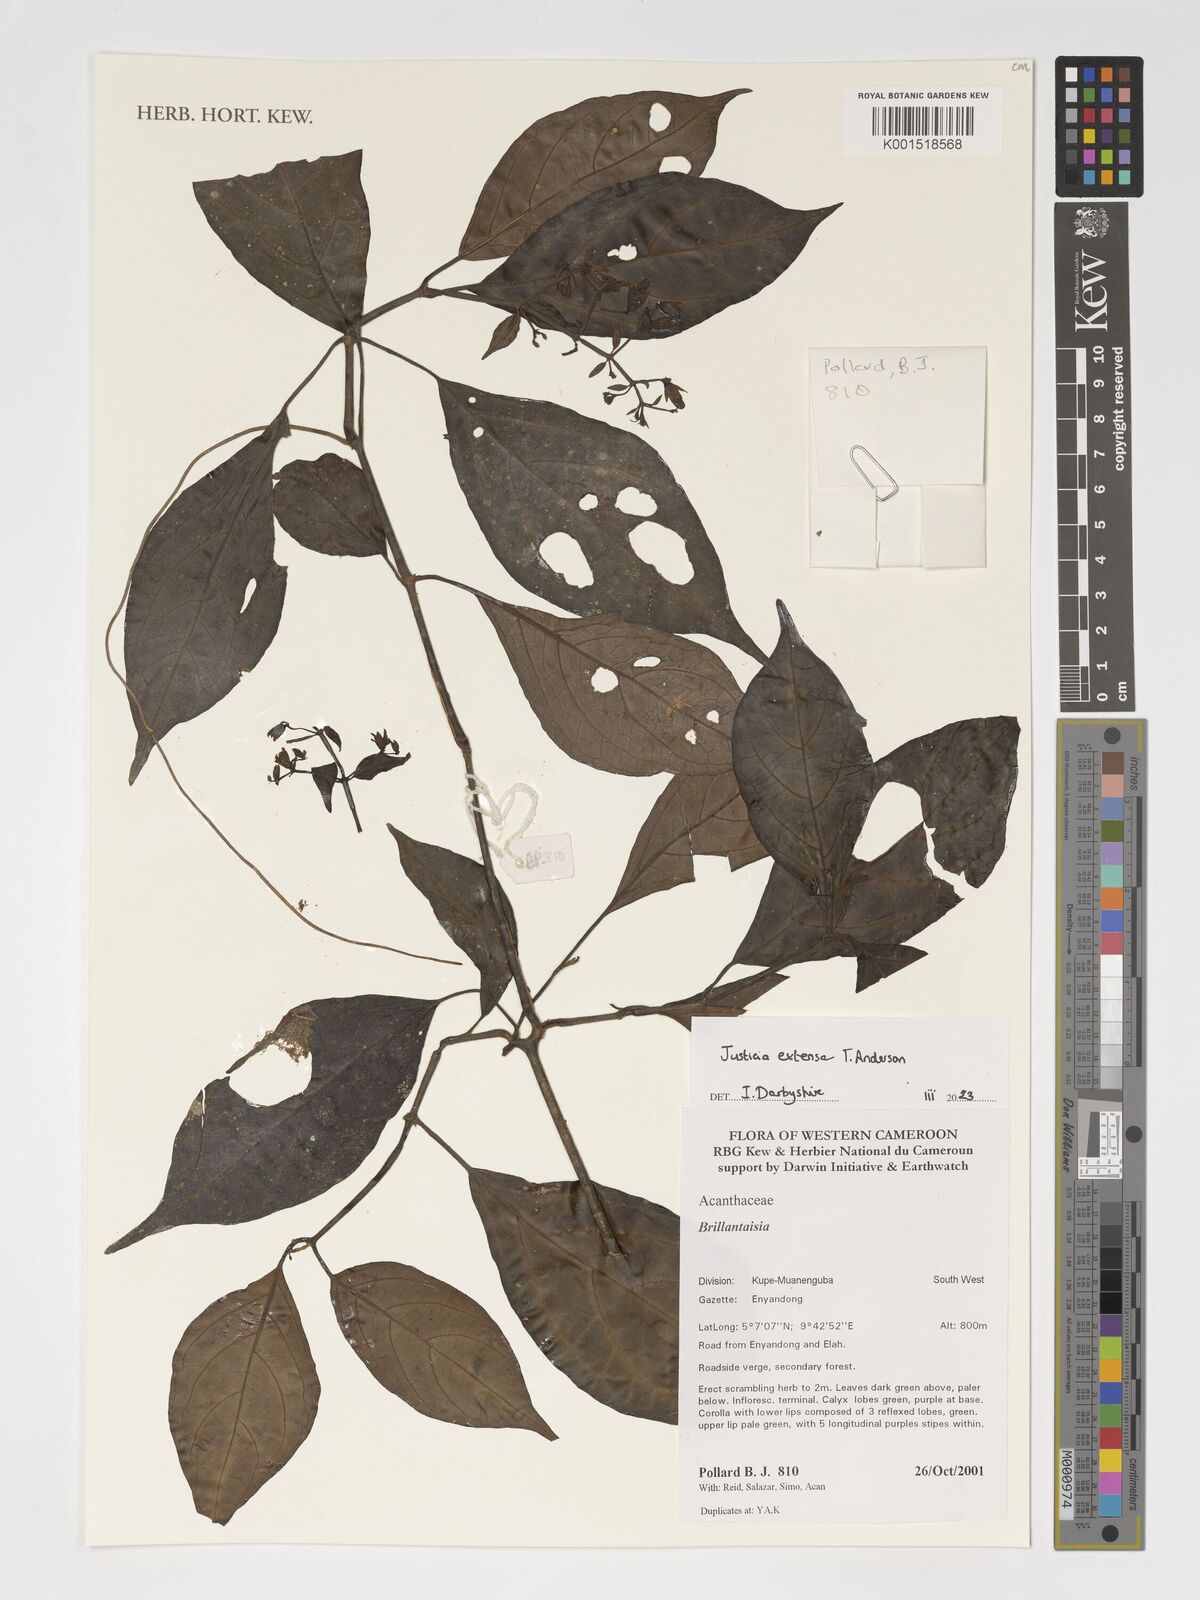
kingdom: Plantae
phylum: Tracheophyta
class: Magnoliopsida
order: Lamiales
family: Acanthaceae
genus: Justicia
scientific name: Justicia extensa
